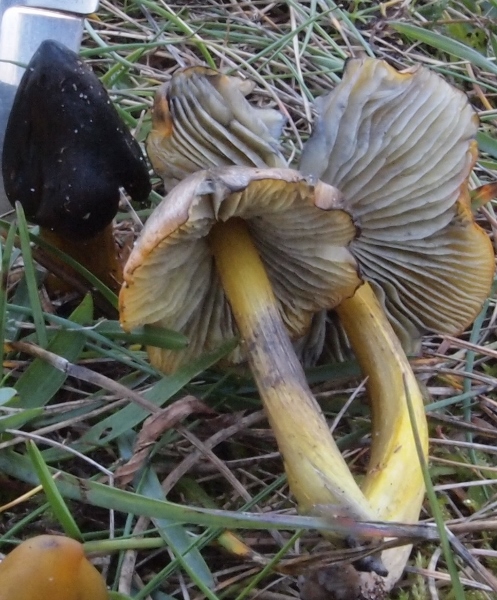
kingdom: Fungi
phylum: Basidiomycota
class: Agaricomycetes
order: Agaricales
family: Hygrophoraceae
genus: Hygrocybe
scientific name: Hygrocybe conica
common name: kegle-vokshat
